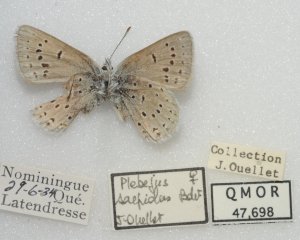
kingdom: Animalia
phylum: Arthropoda
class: Insecta
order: Lepidoptera
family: Lycaenidae
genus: Plebejus
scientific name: Plebejus saepiolus
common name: Greenish Blue
